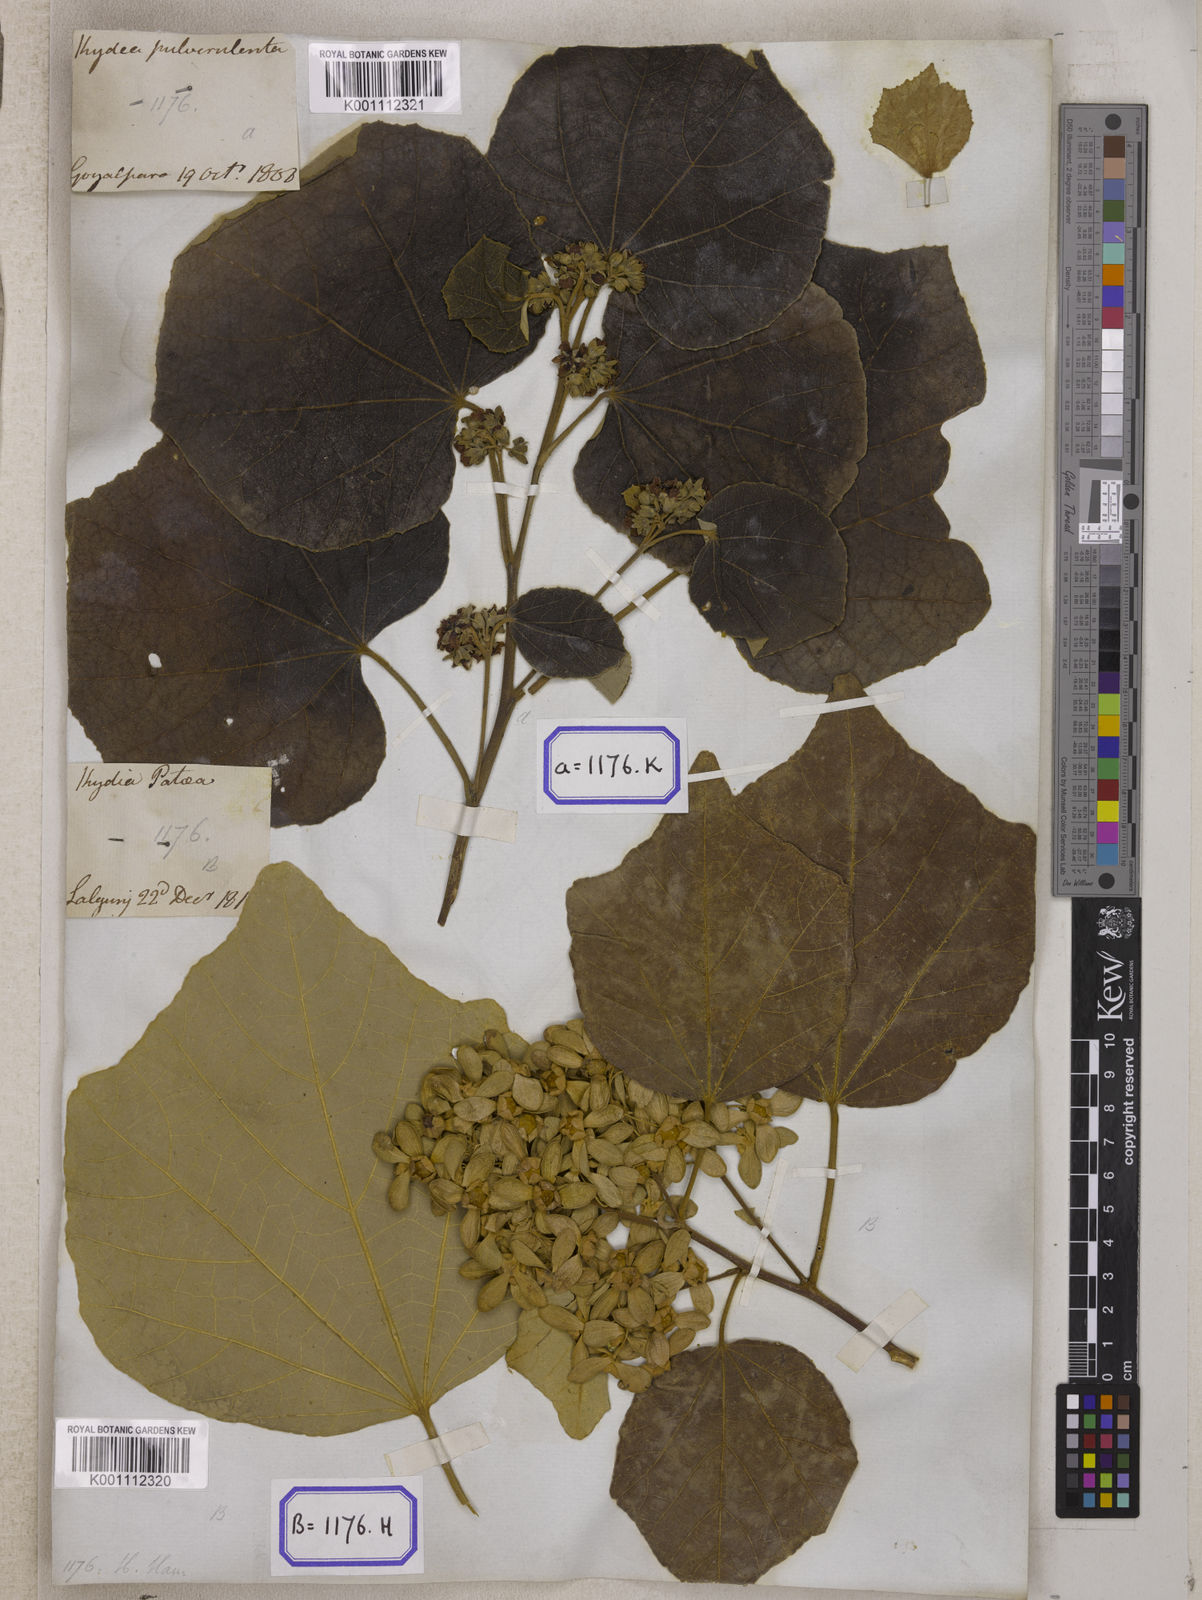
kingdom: Plantae
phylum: Tracheophyta
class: Magnoliopsida
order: Malvales
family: Malvaceae
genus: Kydia
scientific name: Kydia calycina
